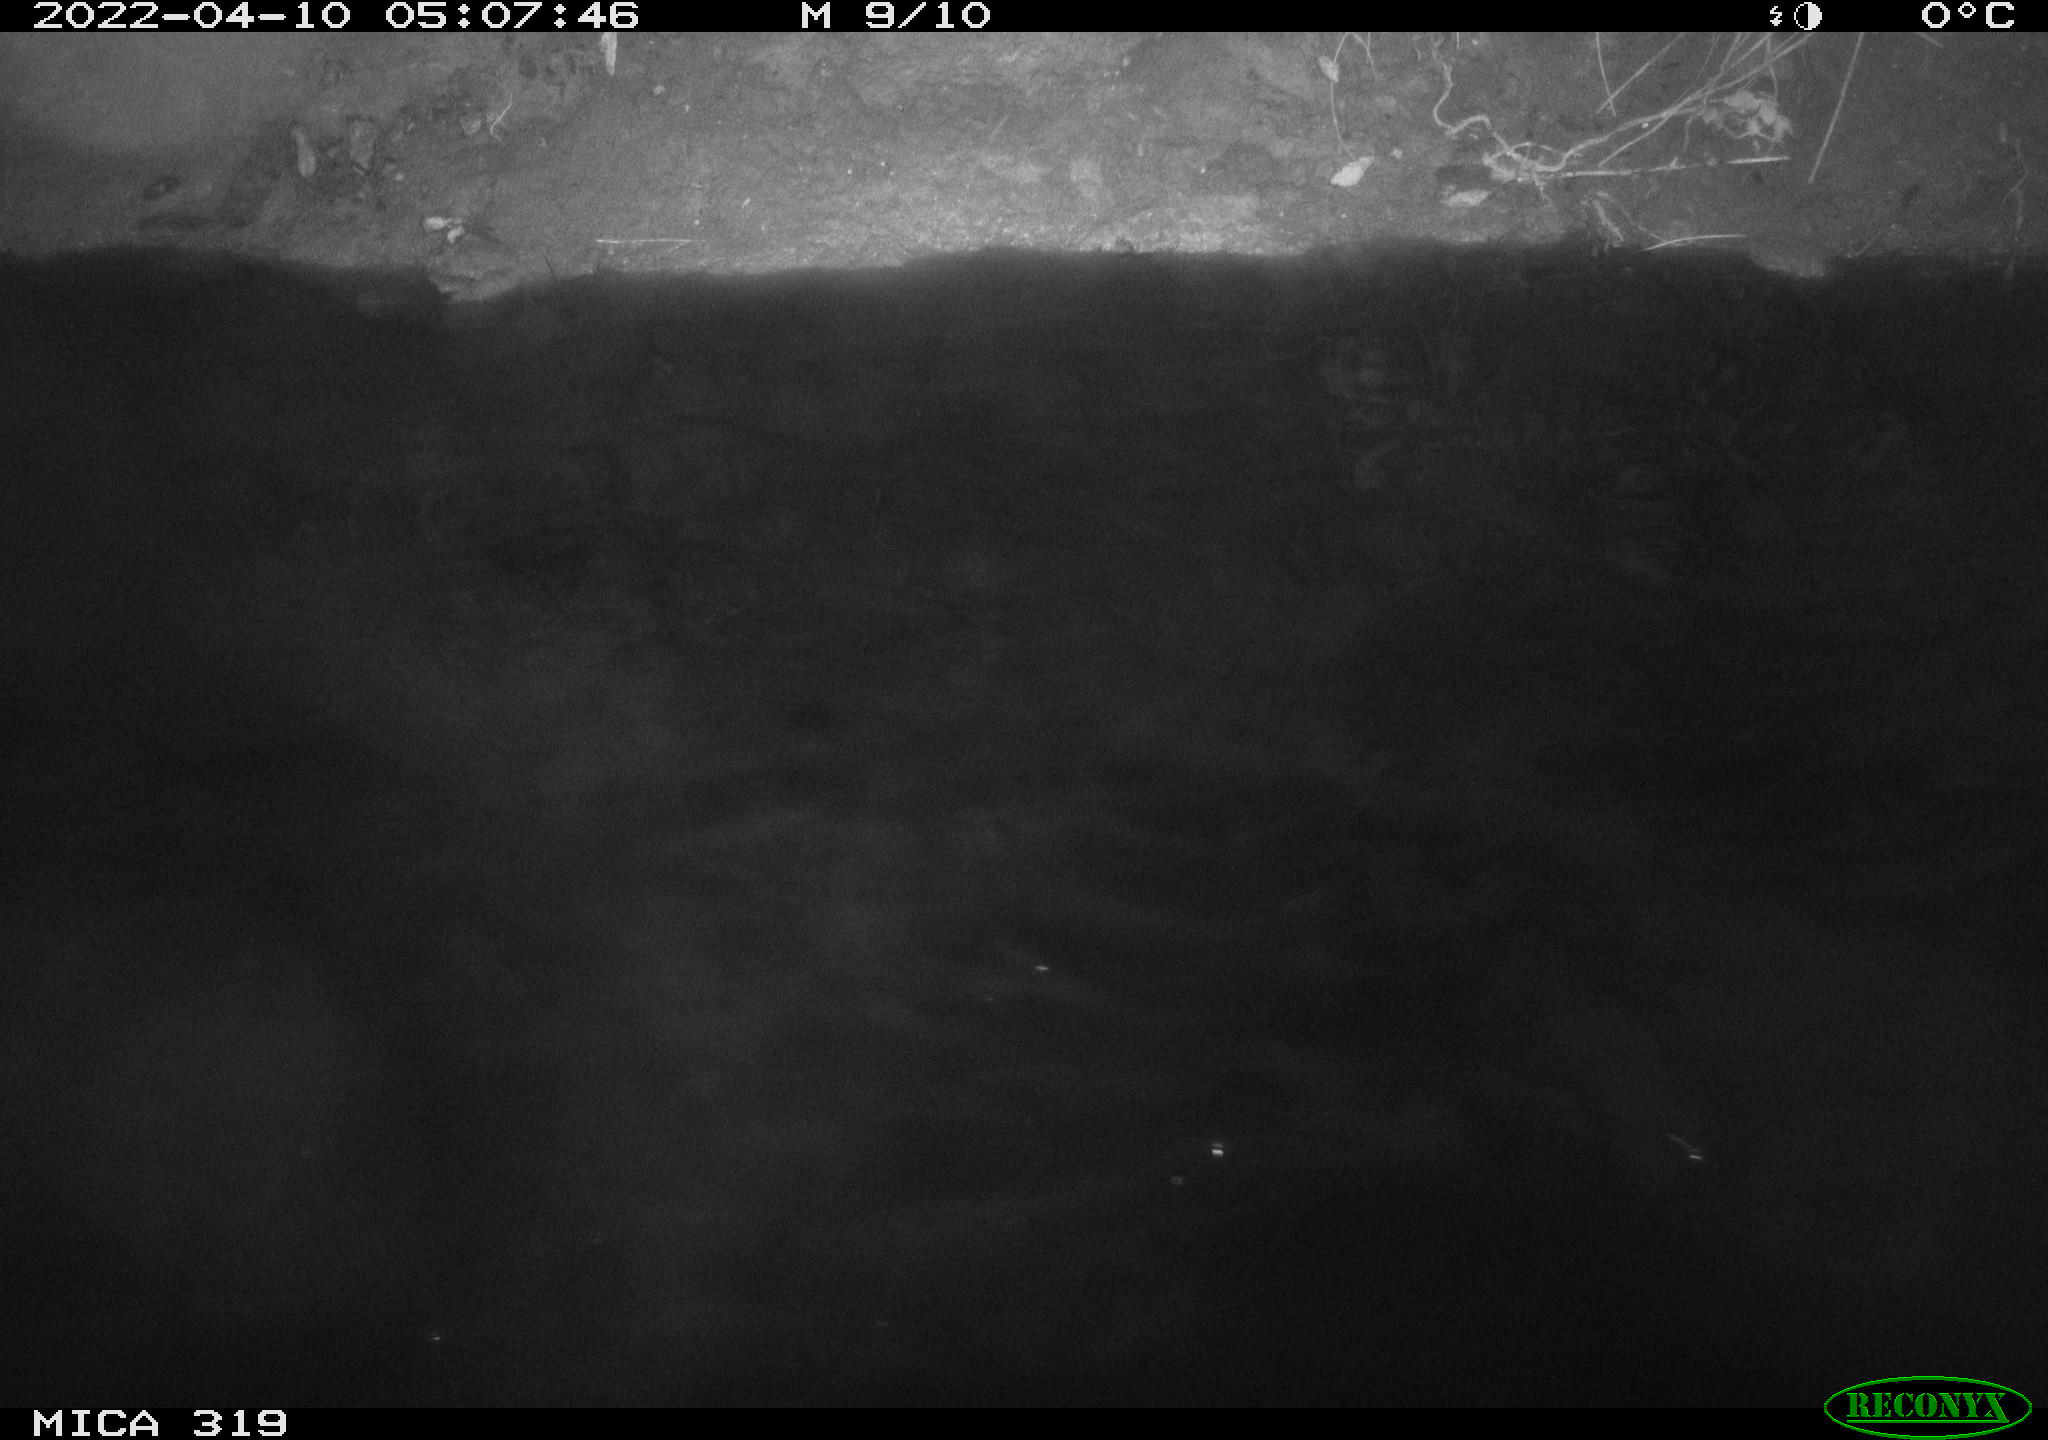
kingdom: Animalia
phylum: Chordata
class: Aves
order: Gruiformes
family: Rallidae
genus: Gallinula
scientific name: Gallinula chloropus
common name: Common moorhen
